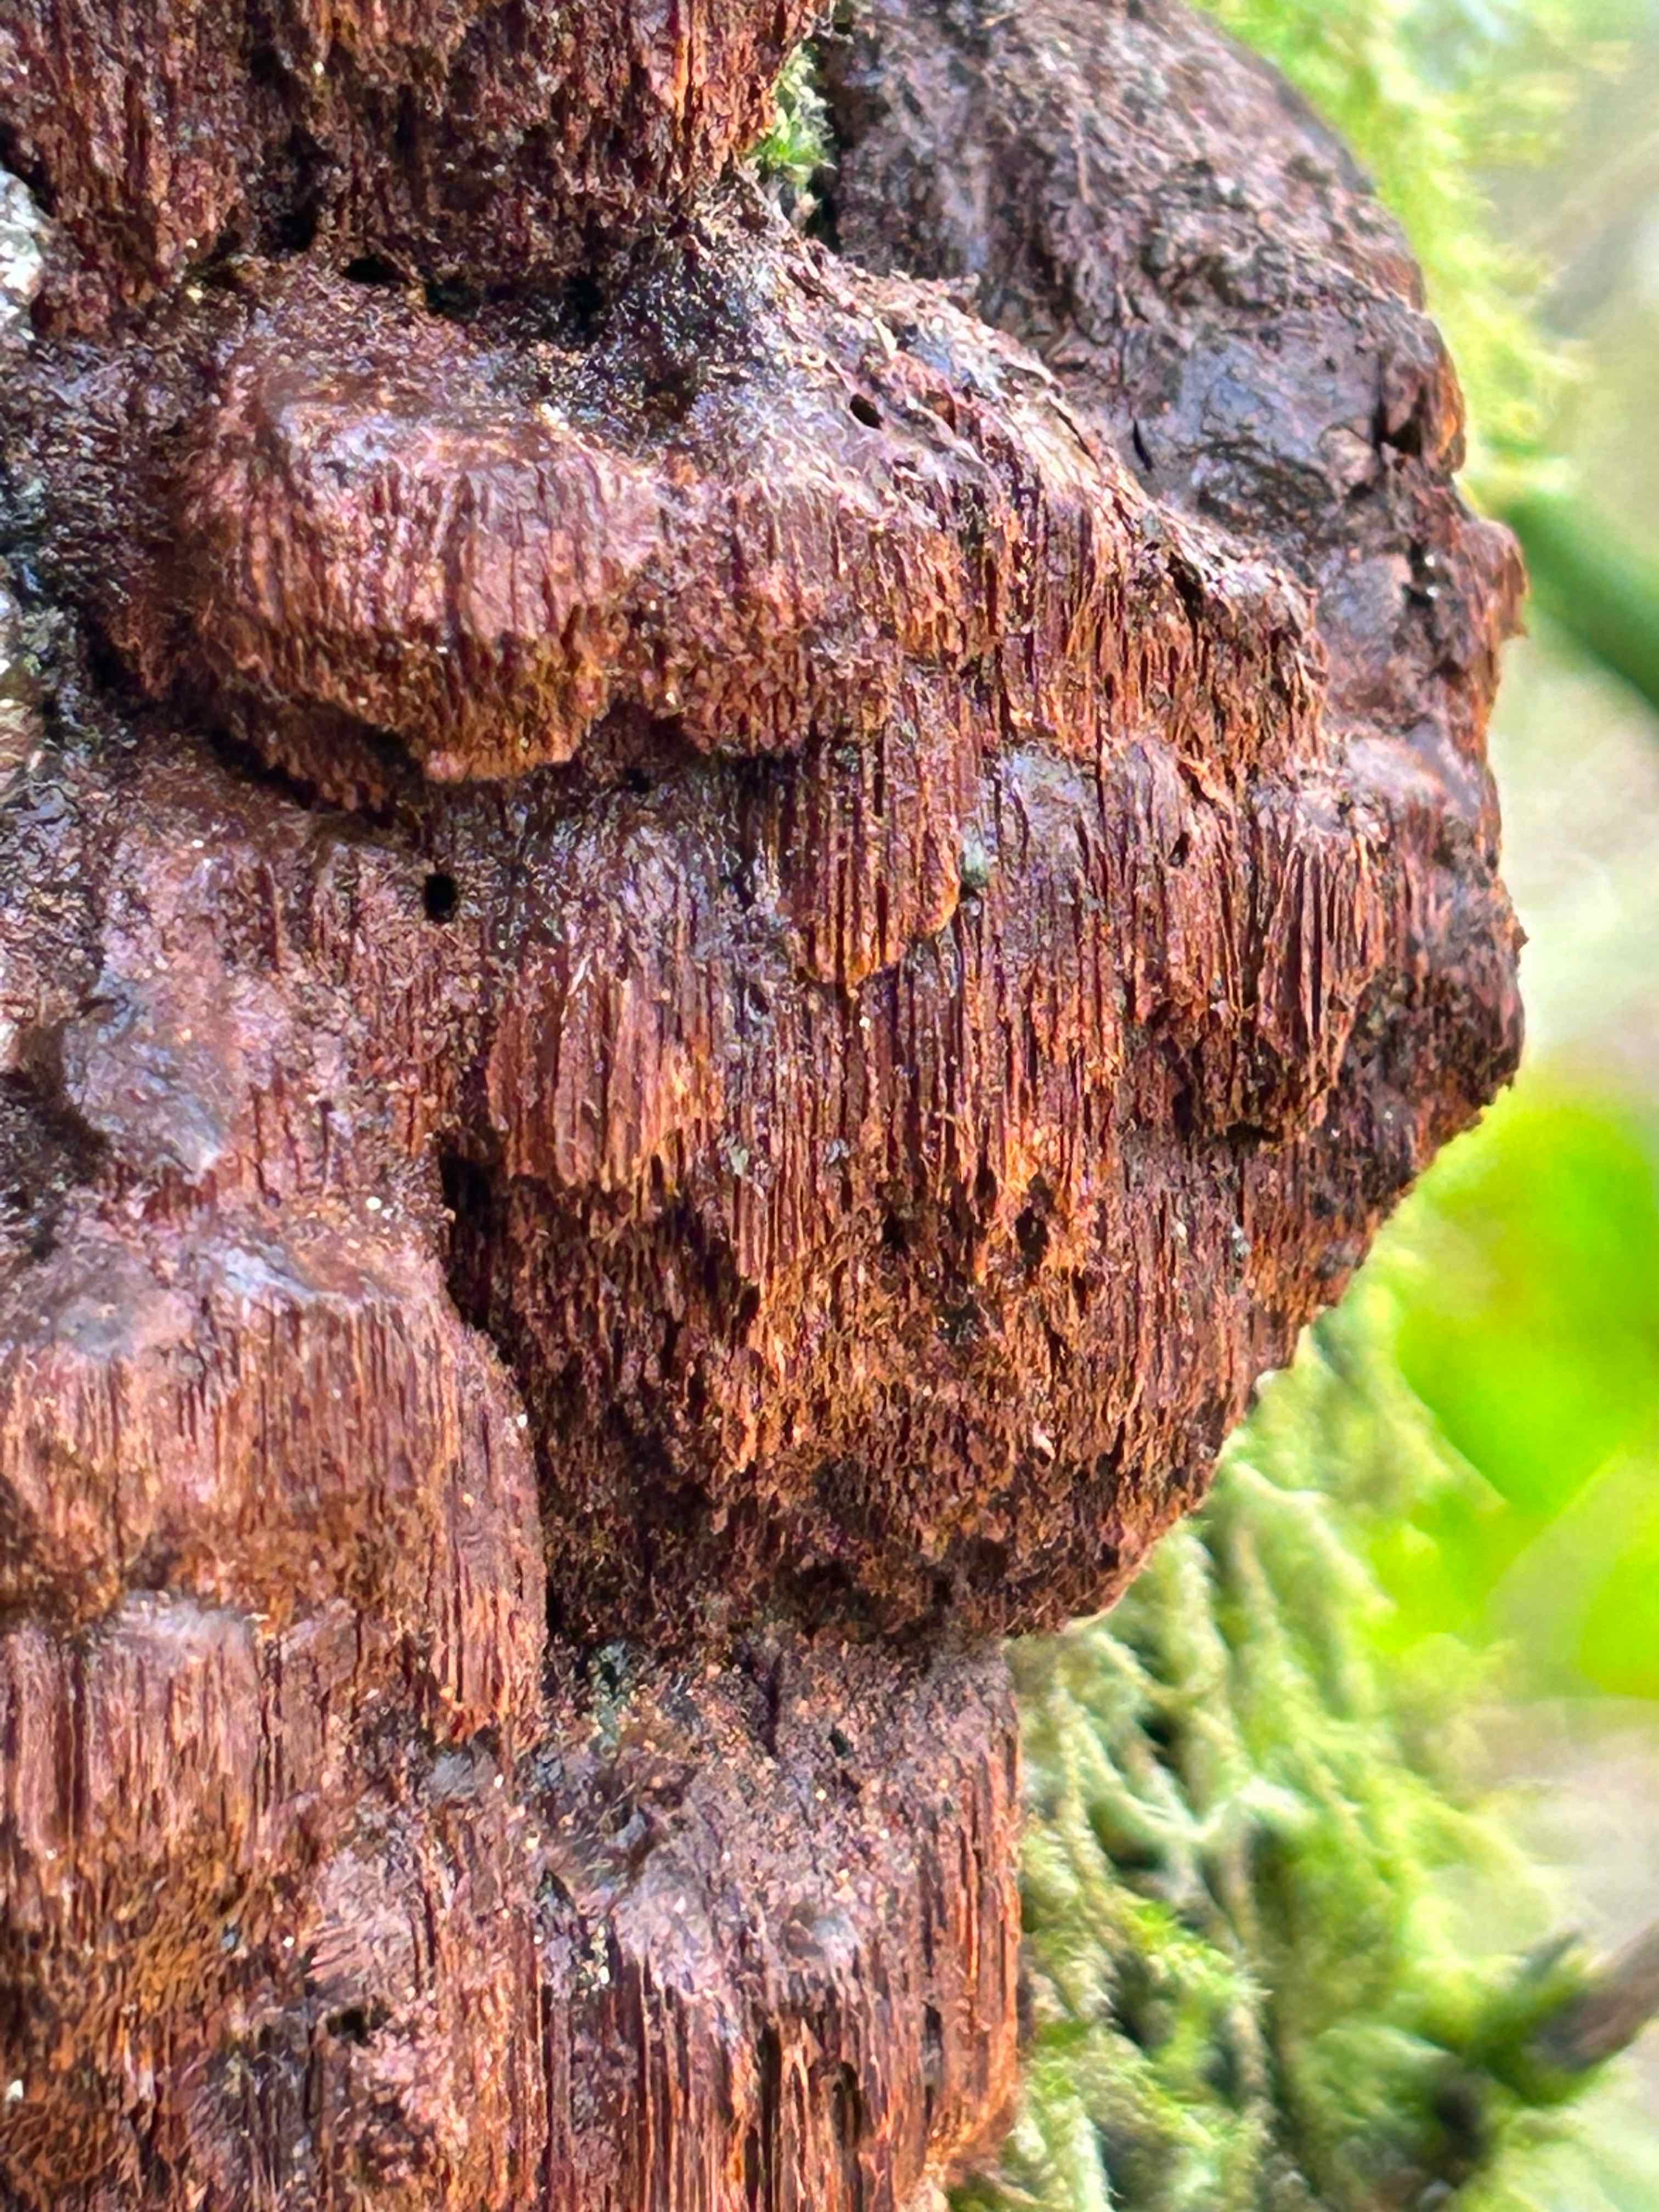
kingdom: Fungi
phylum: Basidiomycota
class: Agaricomycetes
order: Hymenochaetales
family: Hymenochaetaceae
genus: Xanthoporia
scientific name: Xanthoporia radiata
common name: elle-spejlporesvamp
